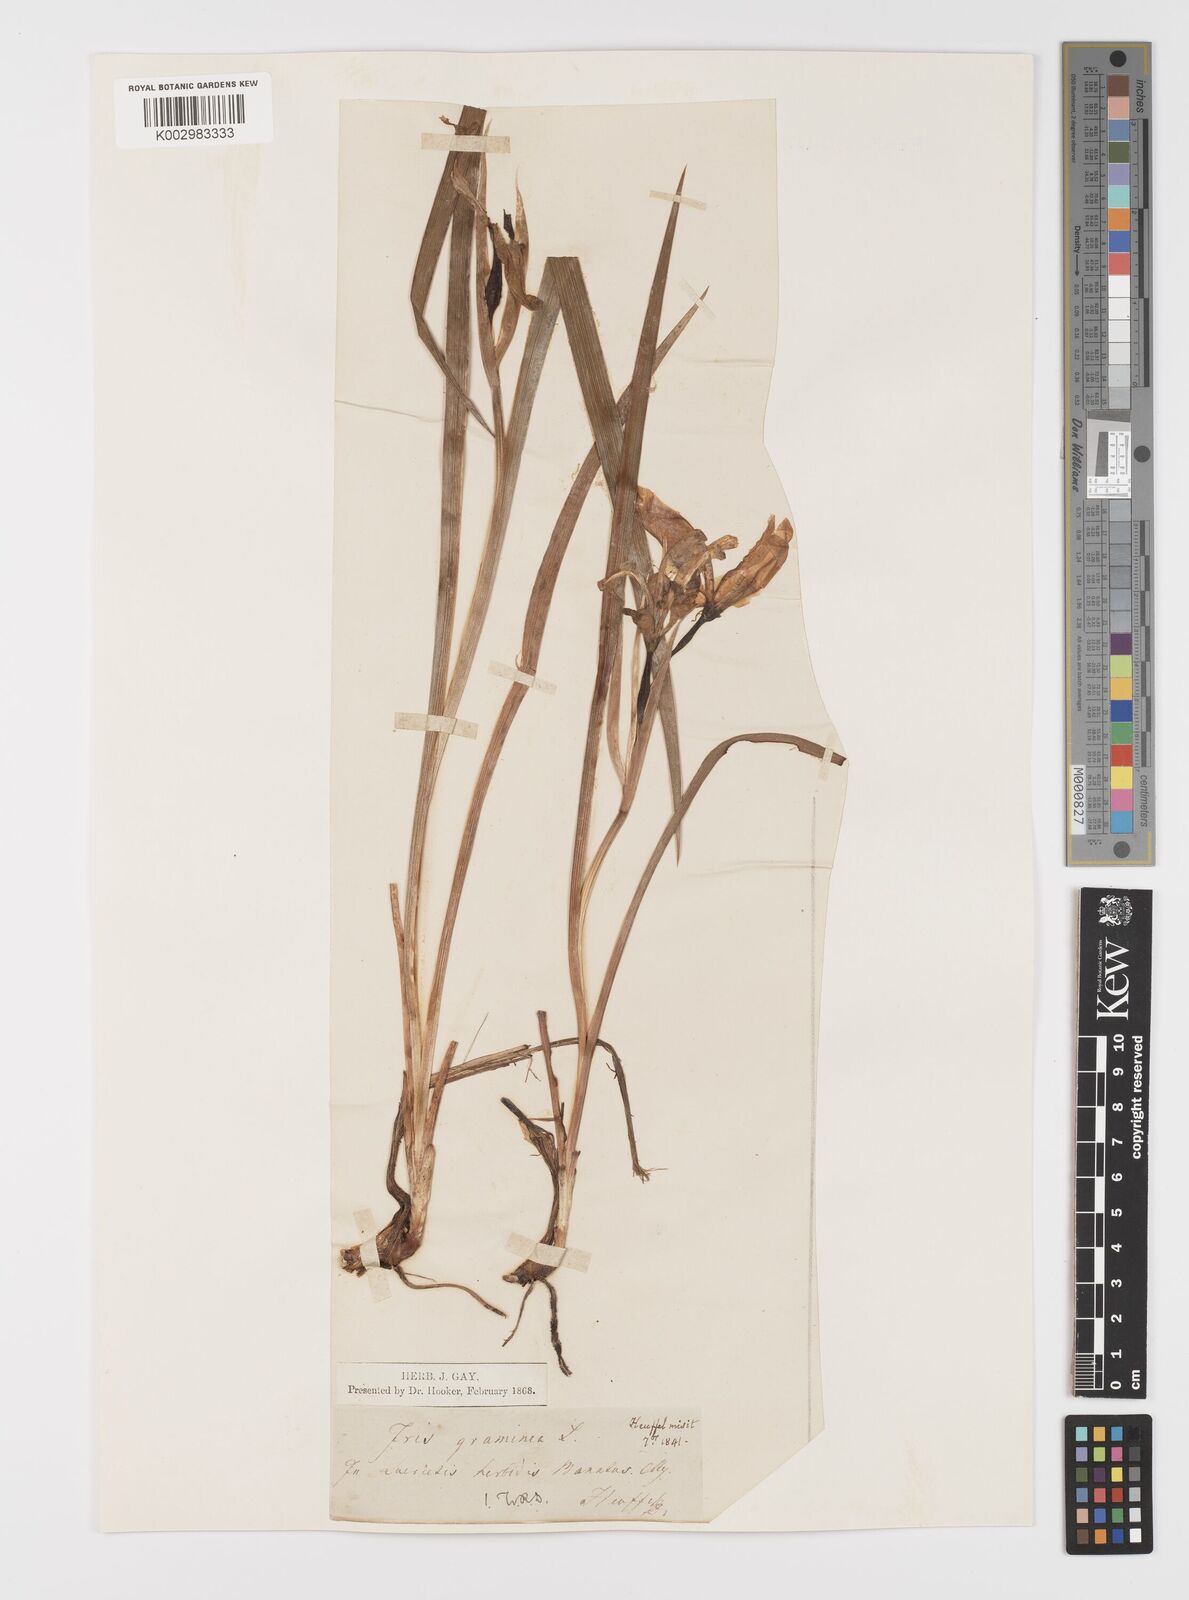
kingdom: Plantae
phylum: Tracheophyta
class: Liliopsida
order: Asparagales
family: Iridaceae
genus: Iris
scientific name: Iris graminea
